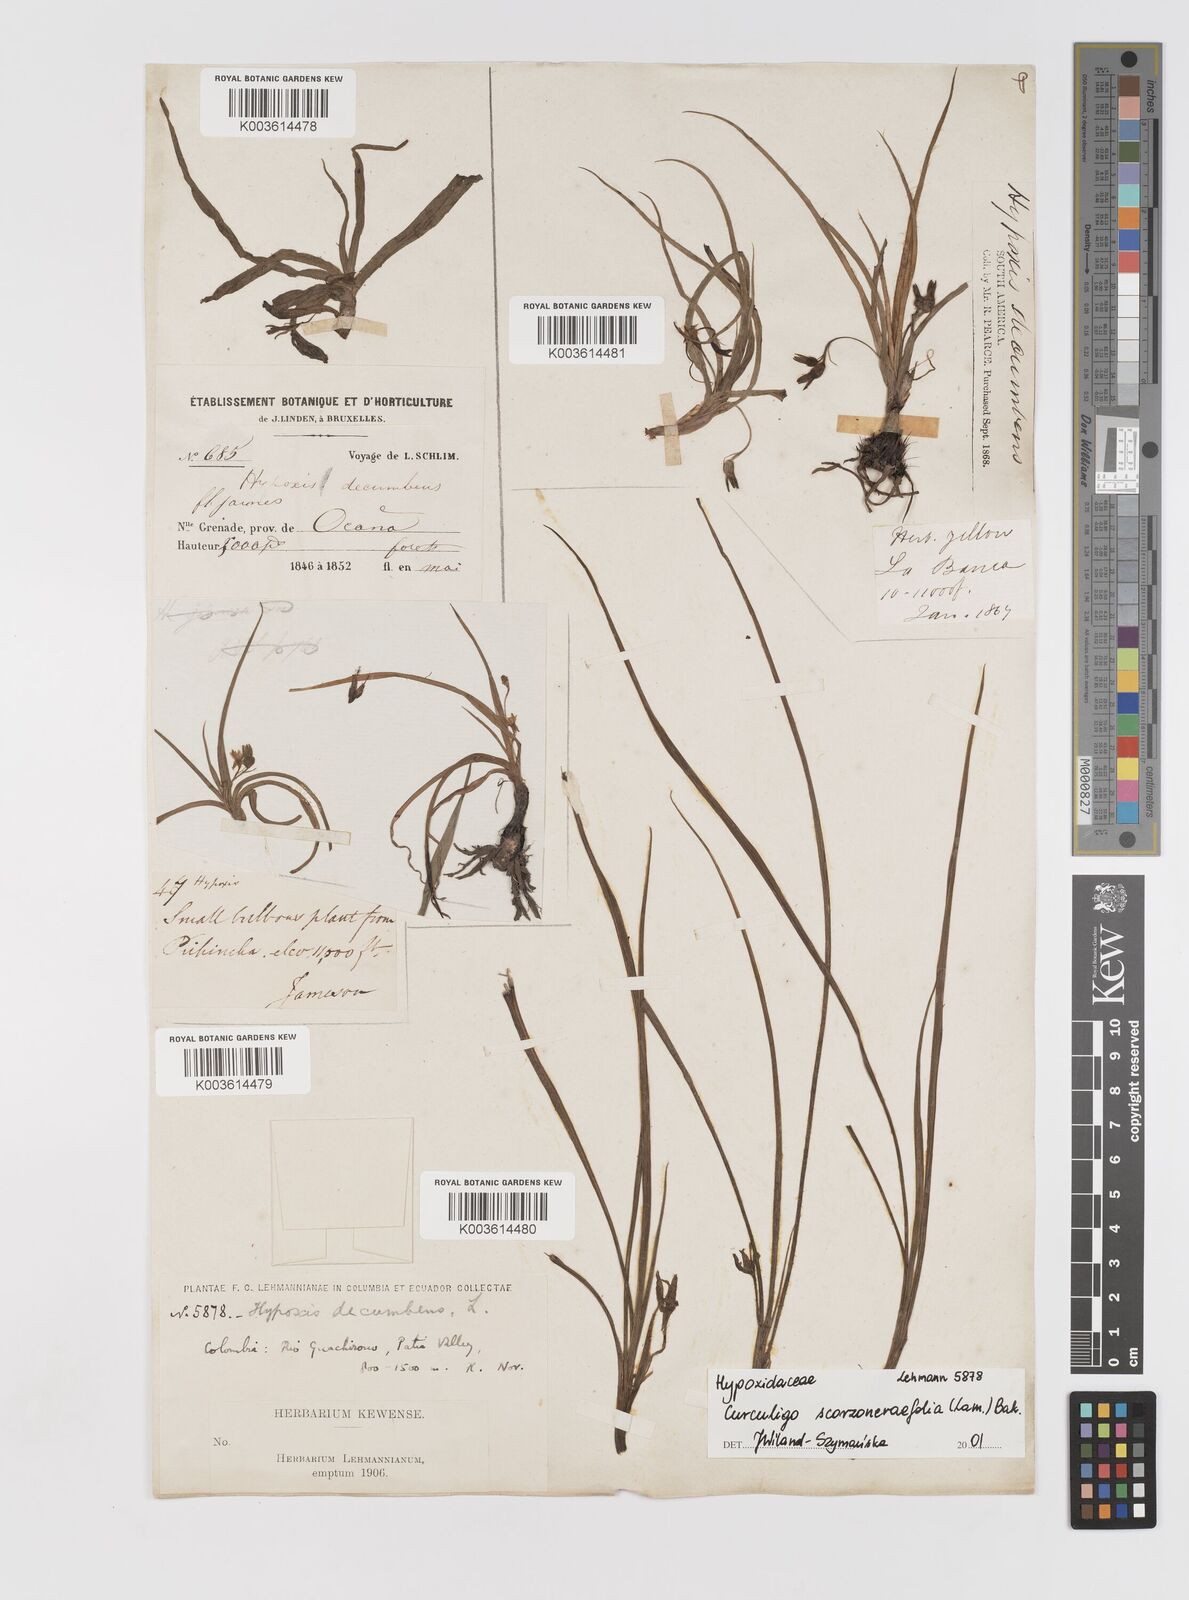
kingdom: Plantae
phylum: Tracheophyta
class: Liliopsida
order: Asparagales
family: Hypoxidaceae
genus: Curculigo
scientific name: Curculigo scorzonerifolia
